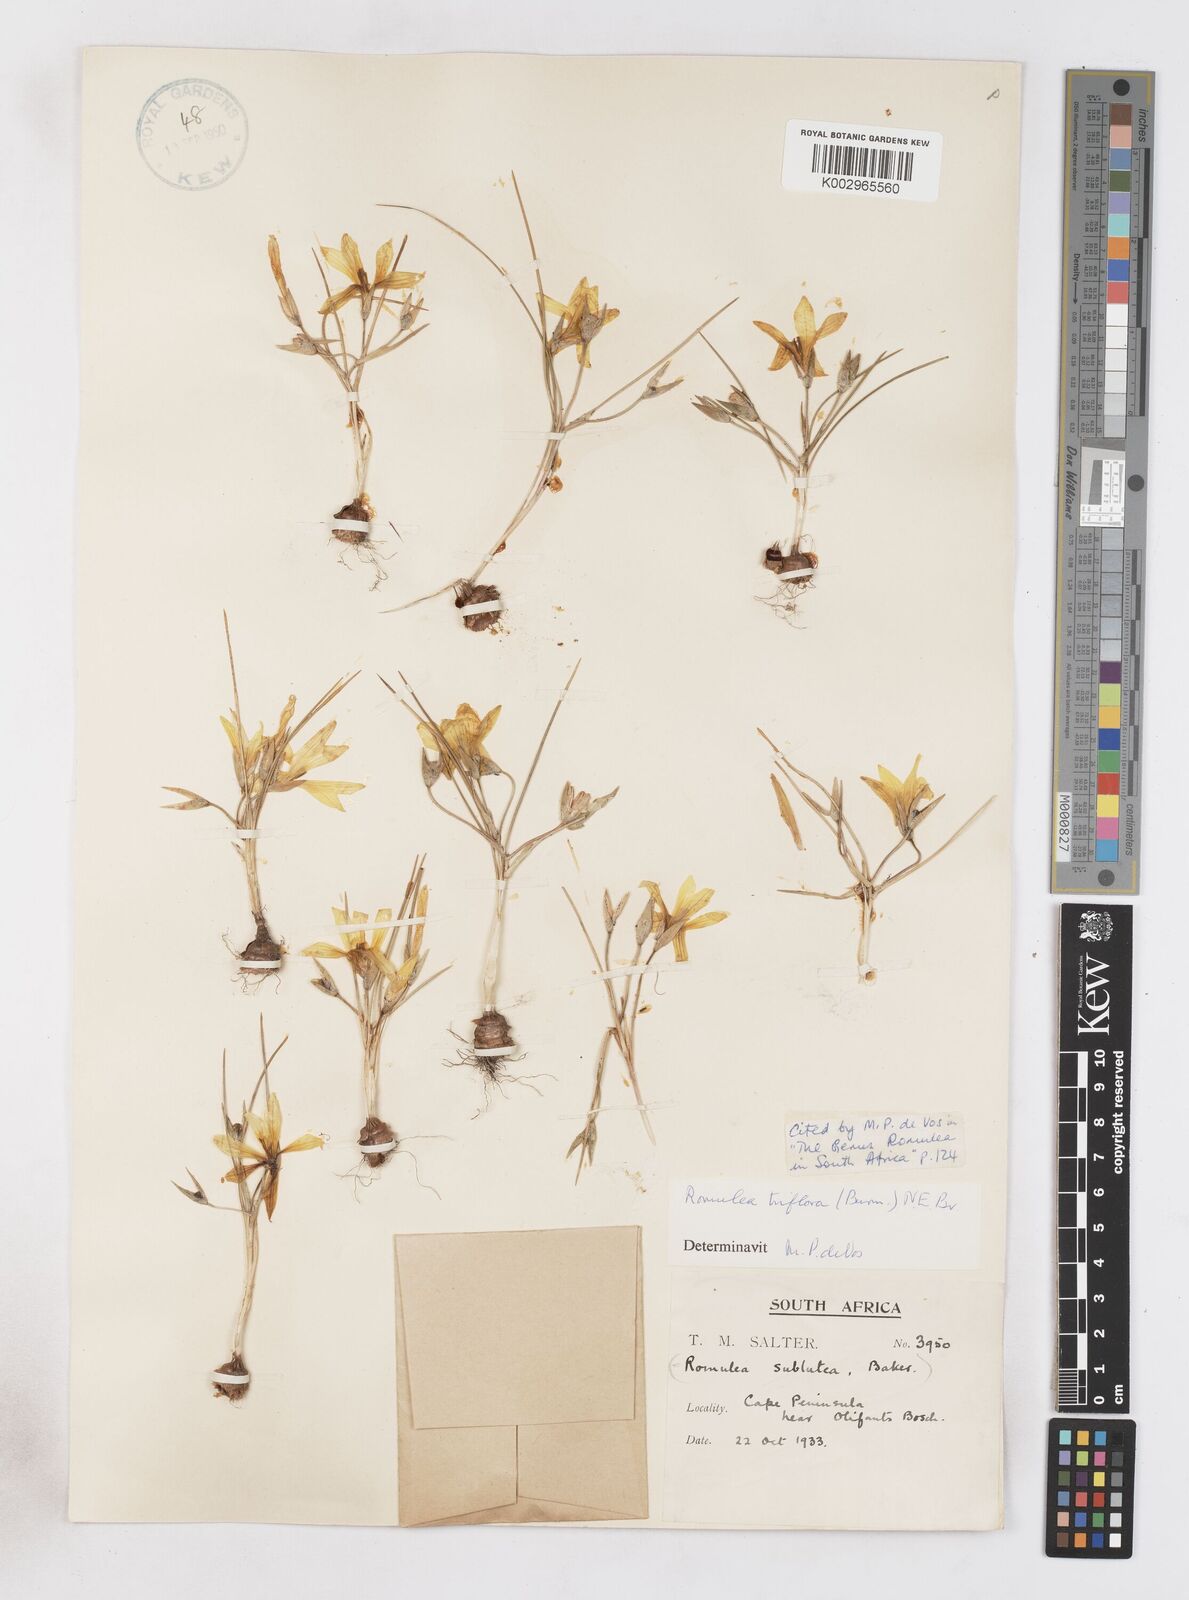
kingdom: Plantae
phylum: Tracheophyta
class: Liliopsida
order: Asparagales
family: Iridaceae
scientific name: Iridaceae
